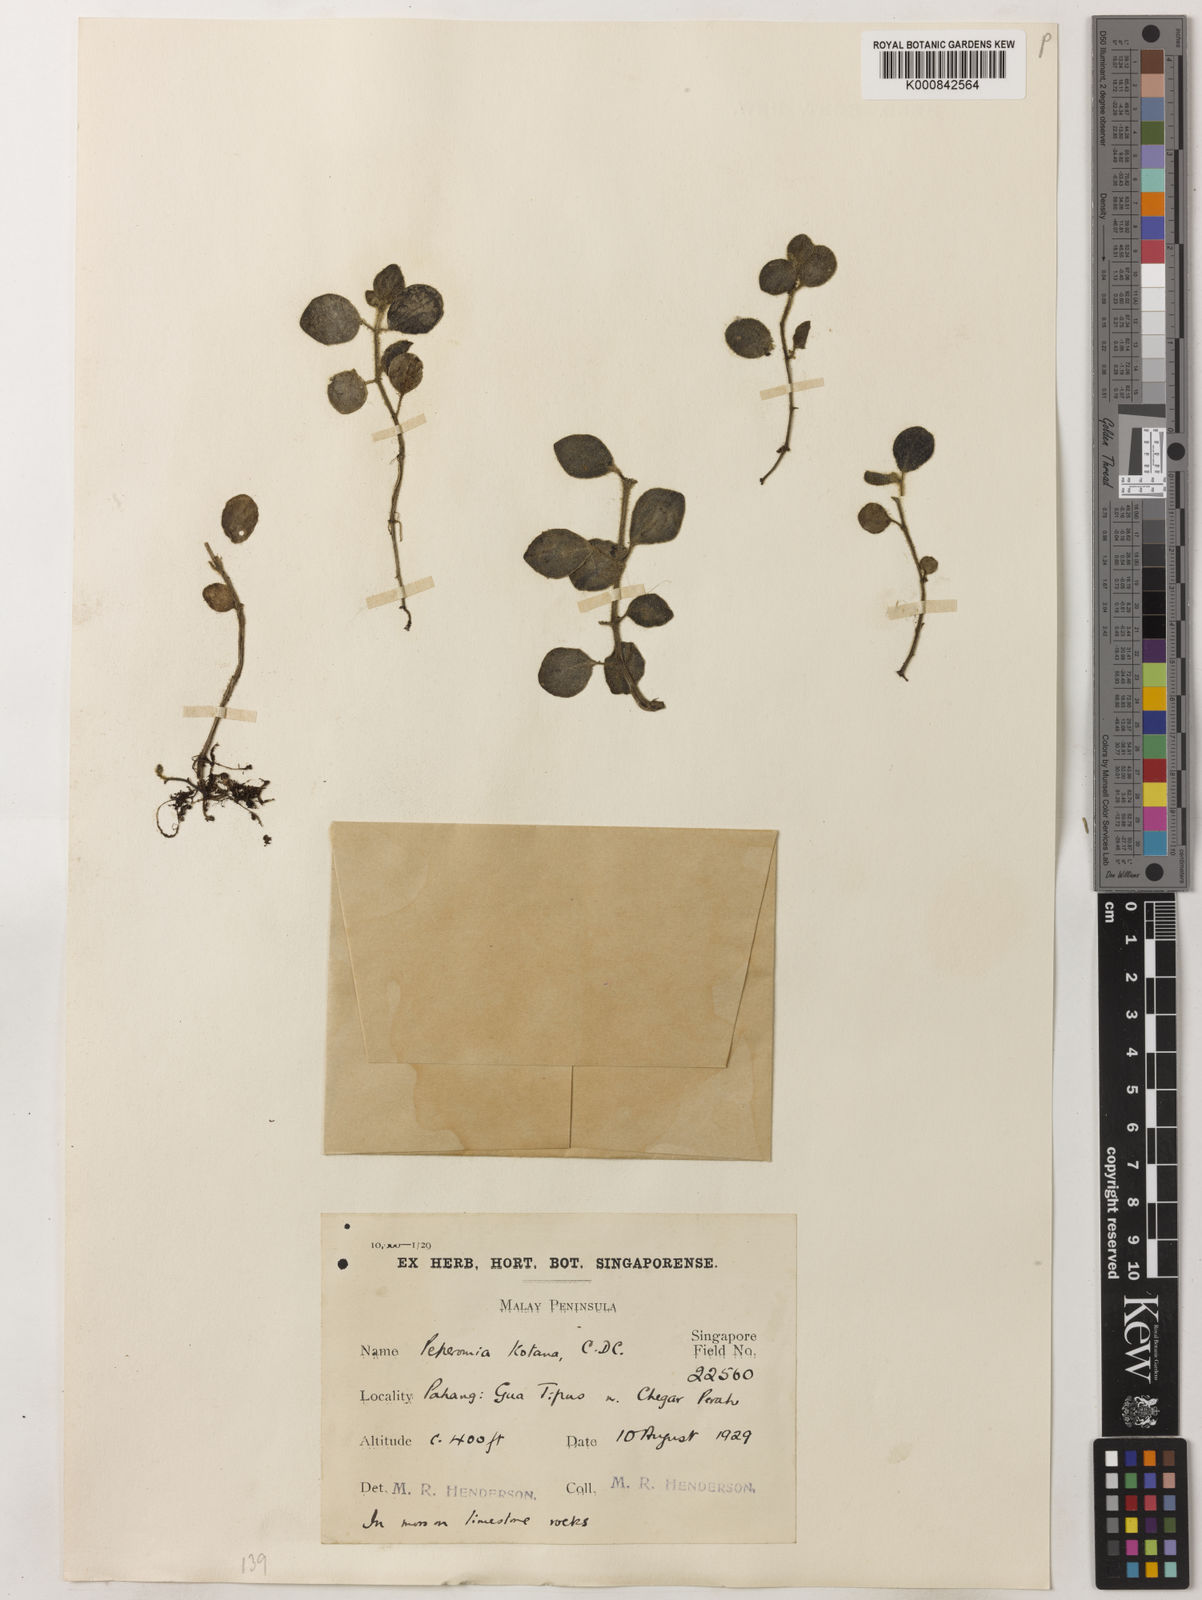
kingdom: Plantae
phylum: Tracheophyta
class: Magnoliopsida
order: Piperales
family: Piperaceae
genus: Peperomia
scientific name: Peperomia kotana
